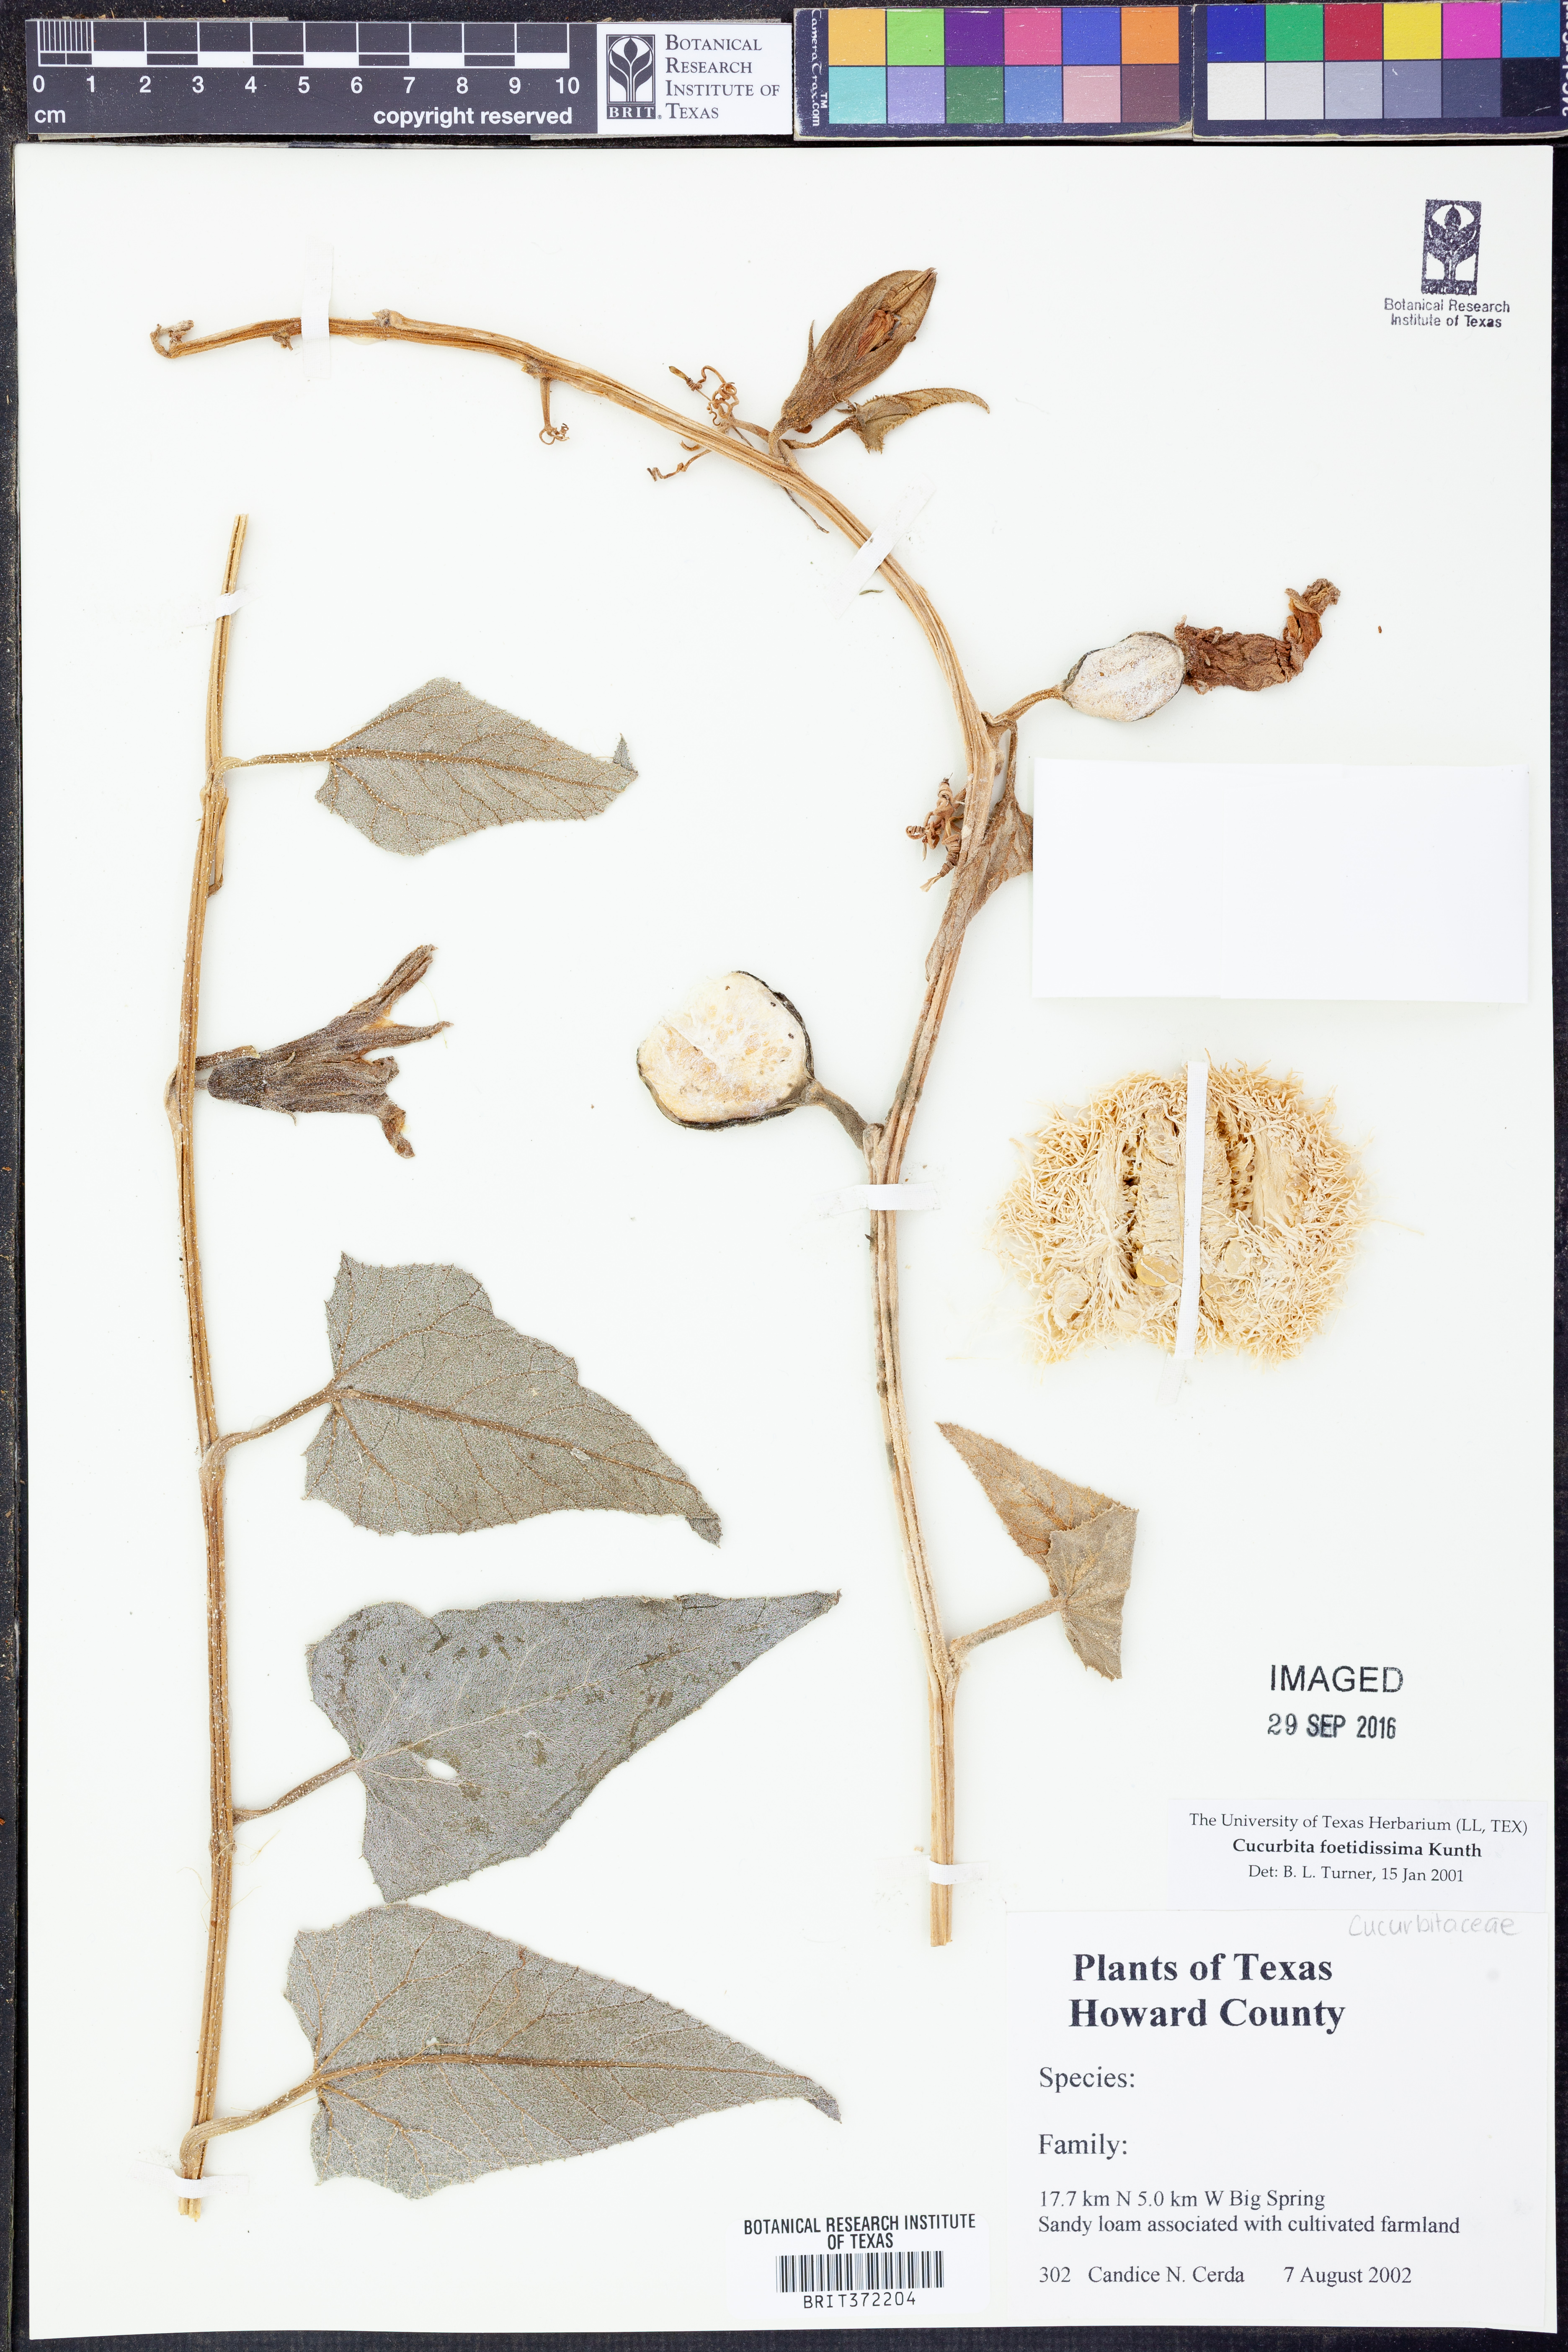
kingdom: Plantae
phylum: Tracheophyta
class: Magnoliopsida
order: Cucurbitales
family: Cucurbitaceae
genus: Cucurbita
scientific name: Cucurbita foetidissima
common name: Buffalo gourd
